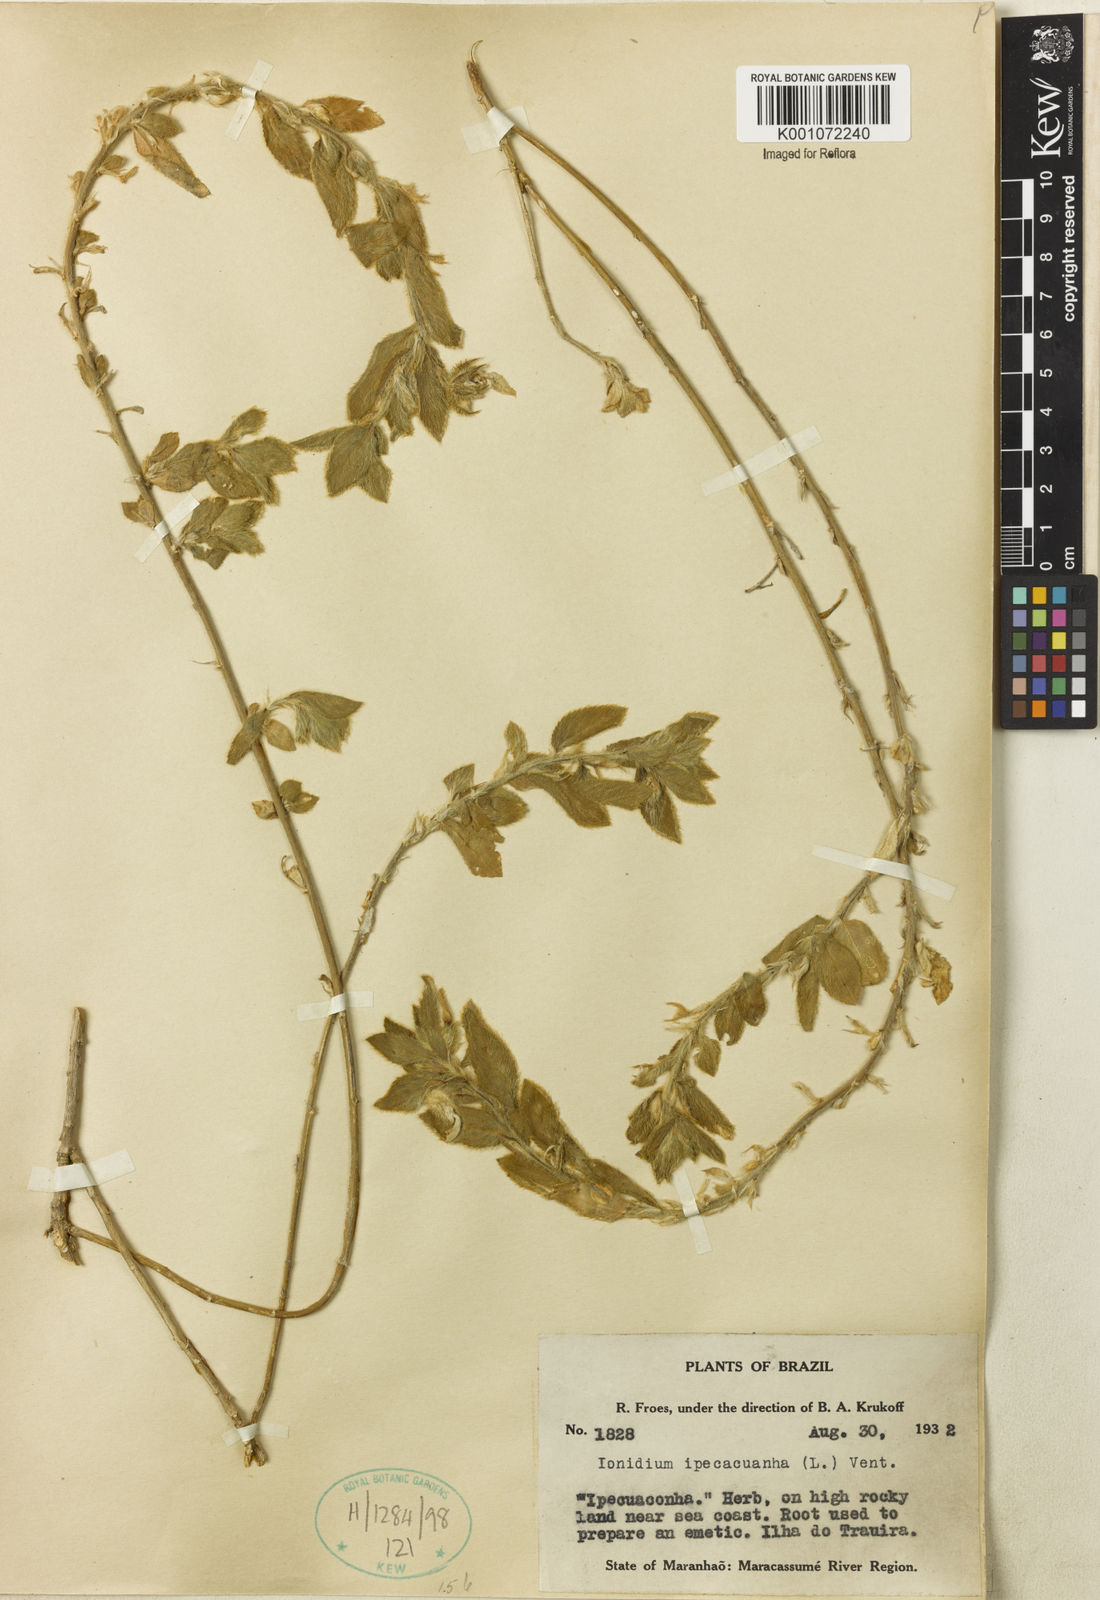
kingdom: Plantae
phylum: Tracheophyta
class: Magnoliopsida
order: Malpighiales
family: Violaceae
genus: Pombalia
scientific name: Pombalia calceolaria
